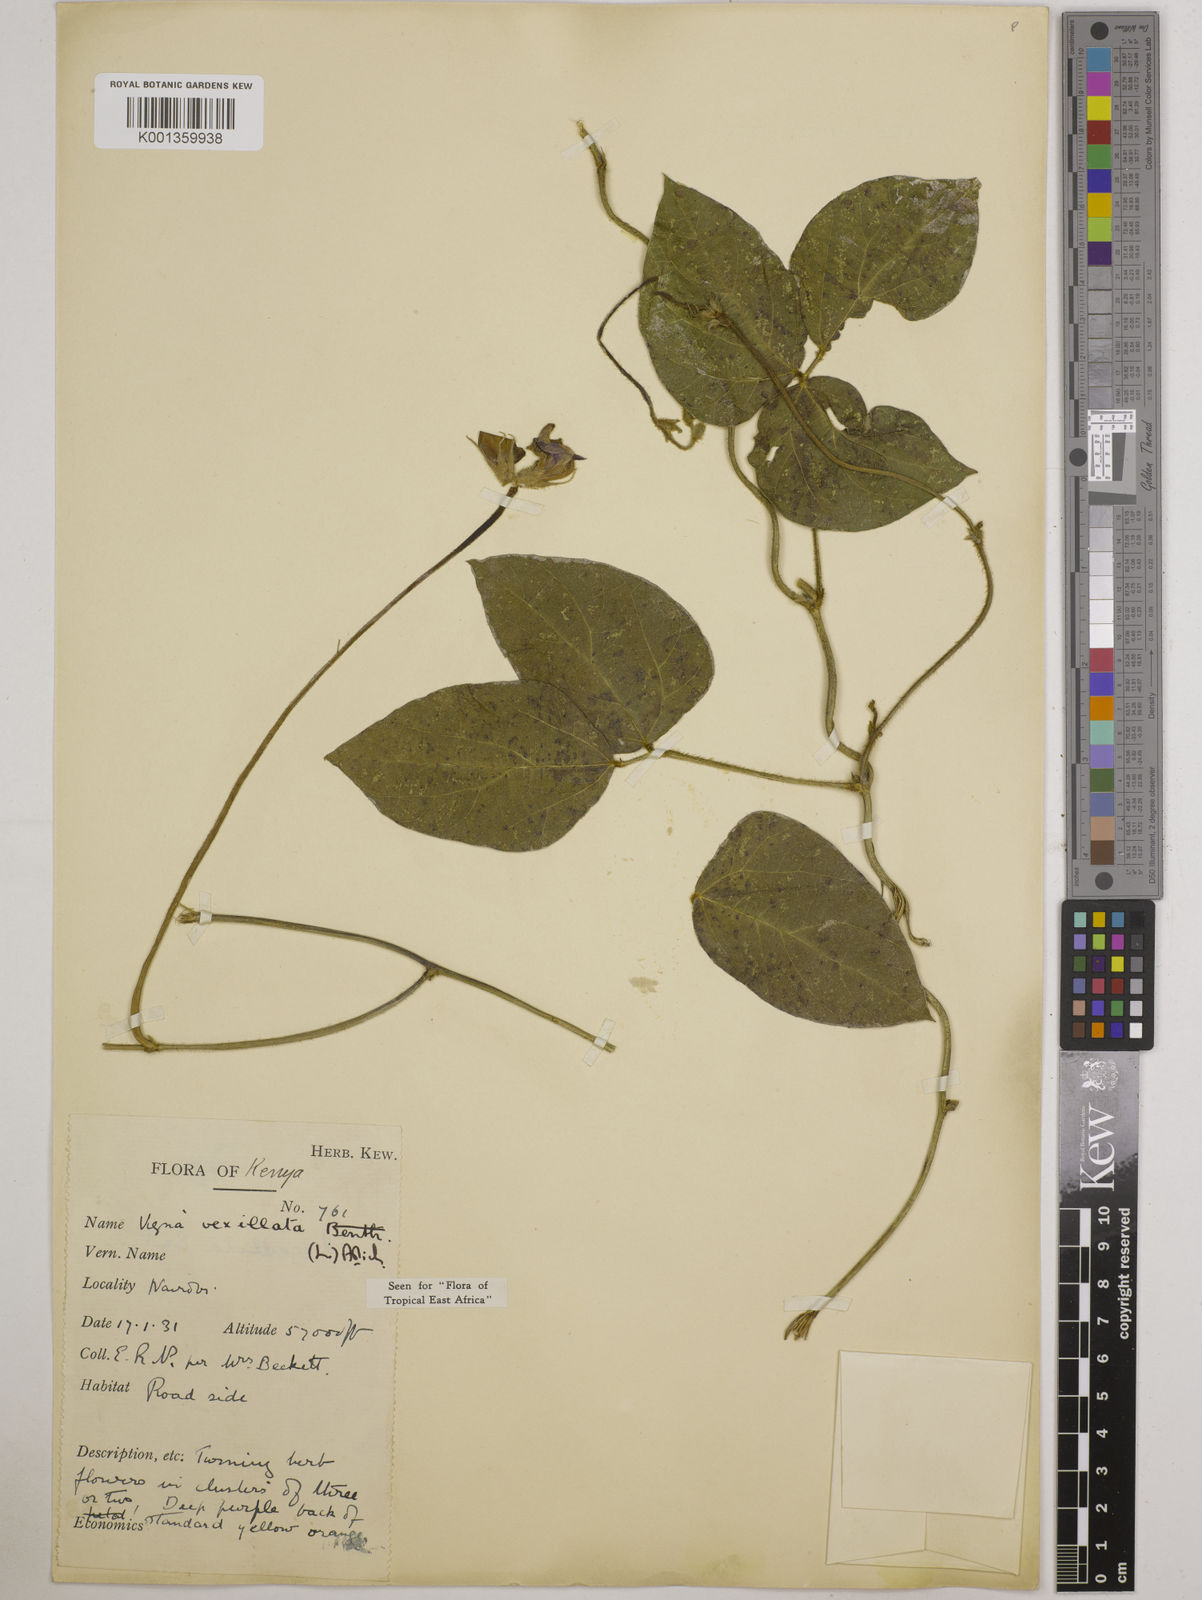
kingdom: Plantae
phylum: Tracheophyta
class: Magnoliopsida
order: Fabales
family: Fabaceae
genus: Vigna
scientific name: Vigna vexillata
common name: Zombi pea
